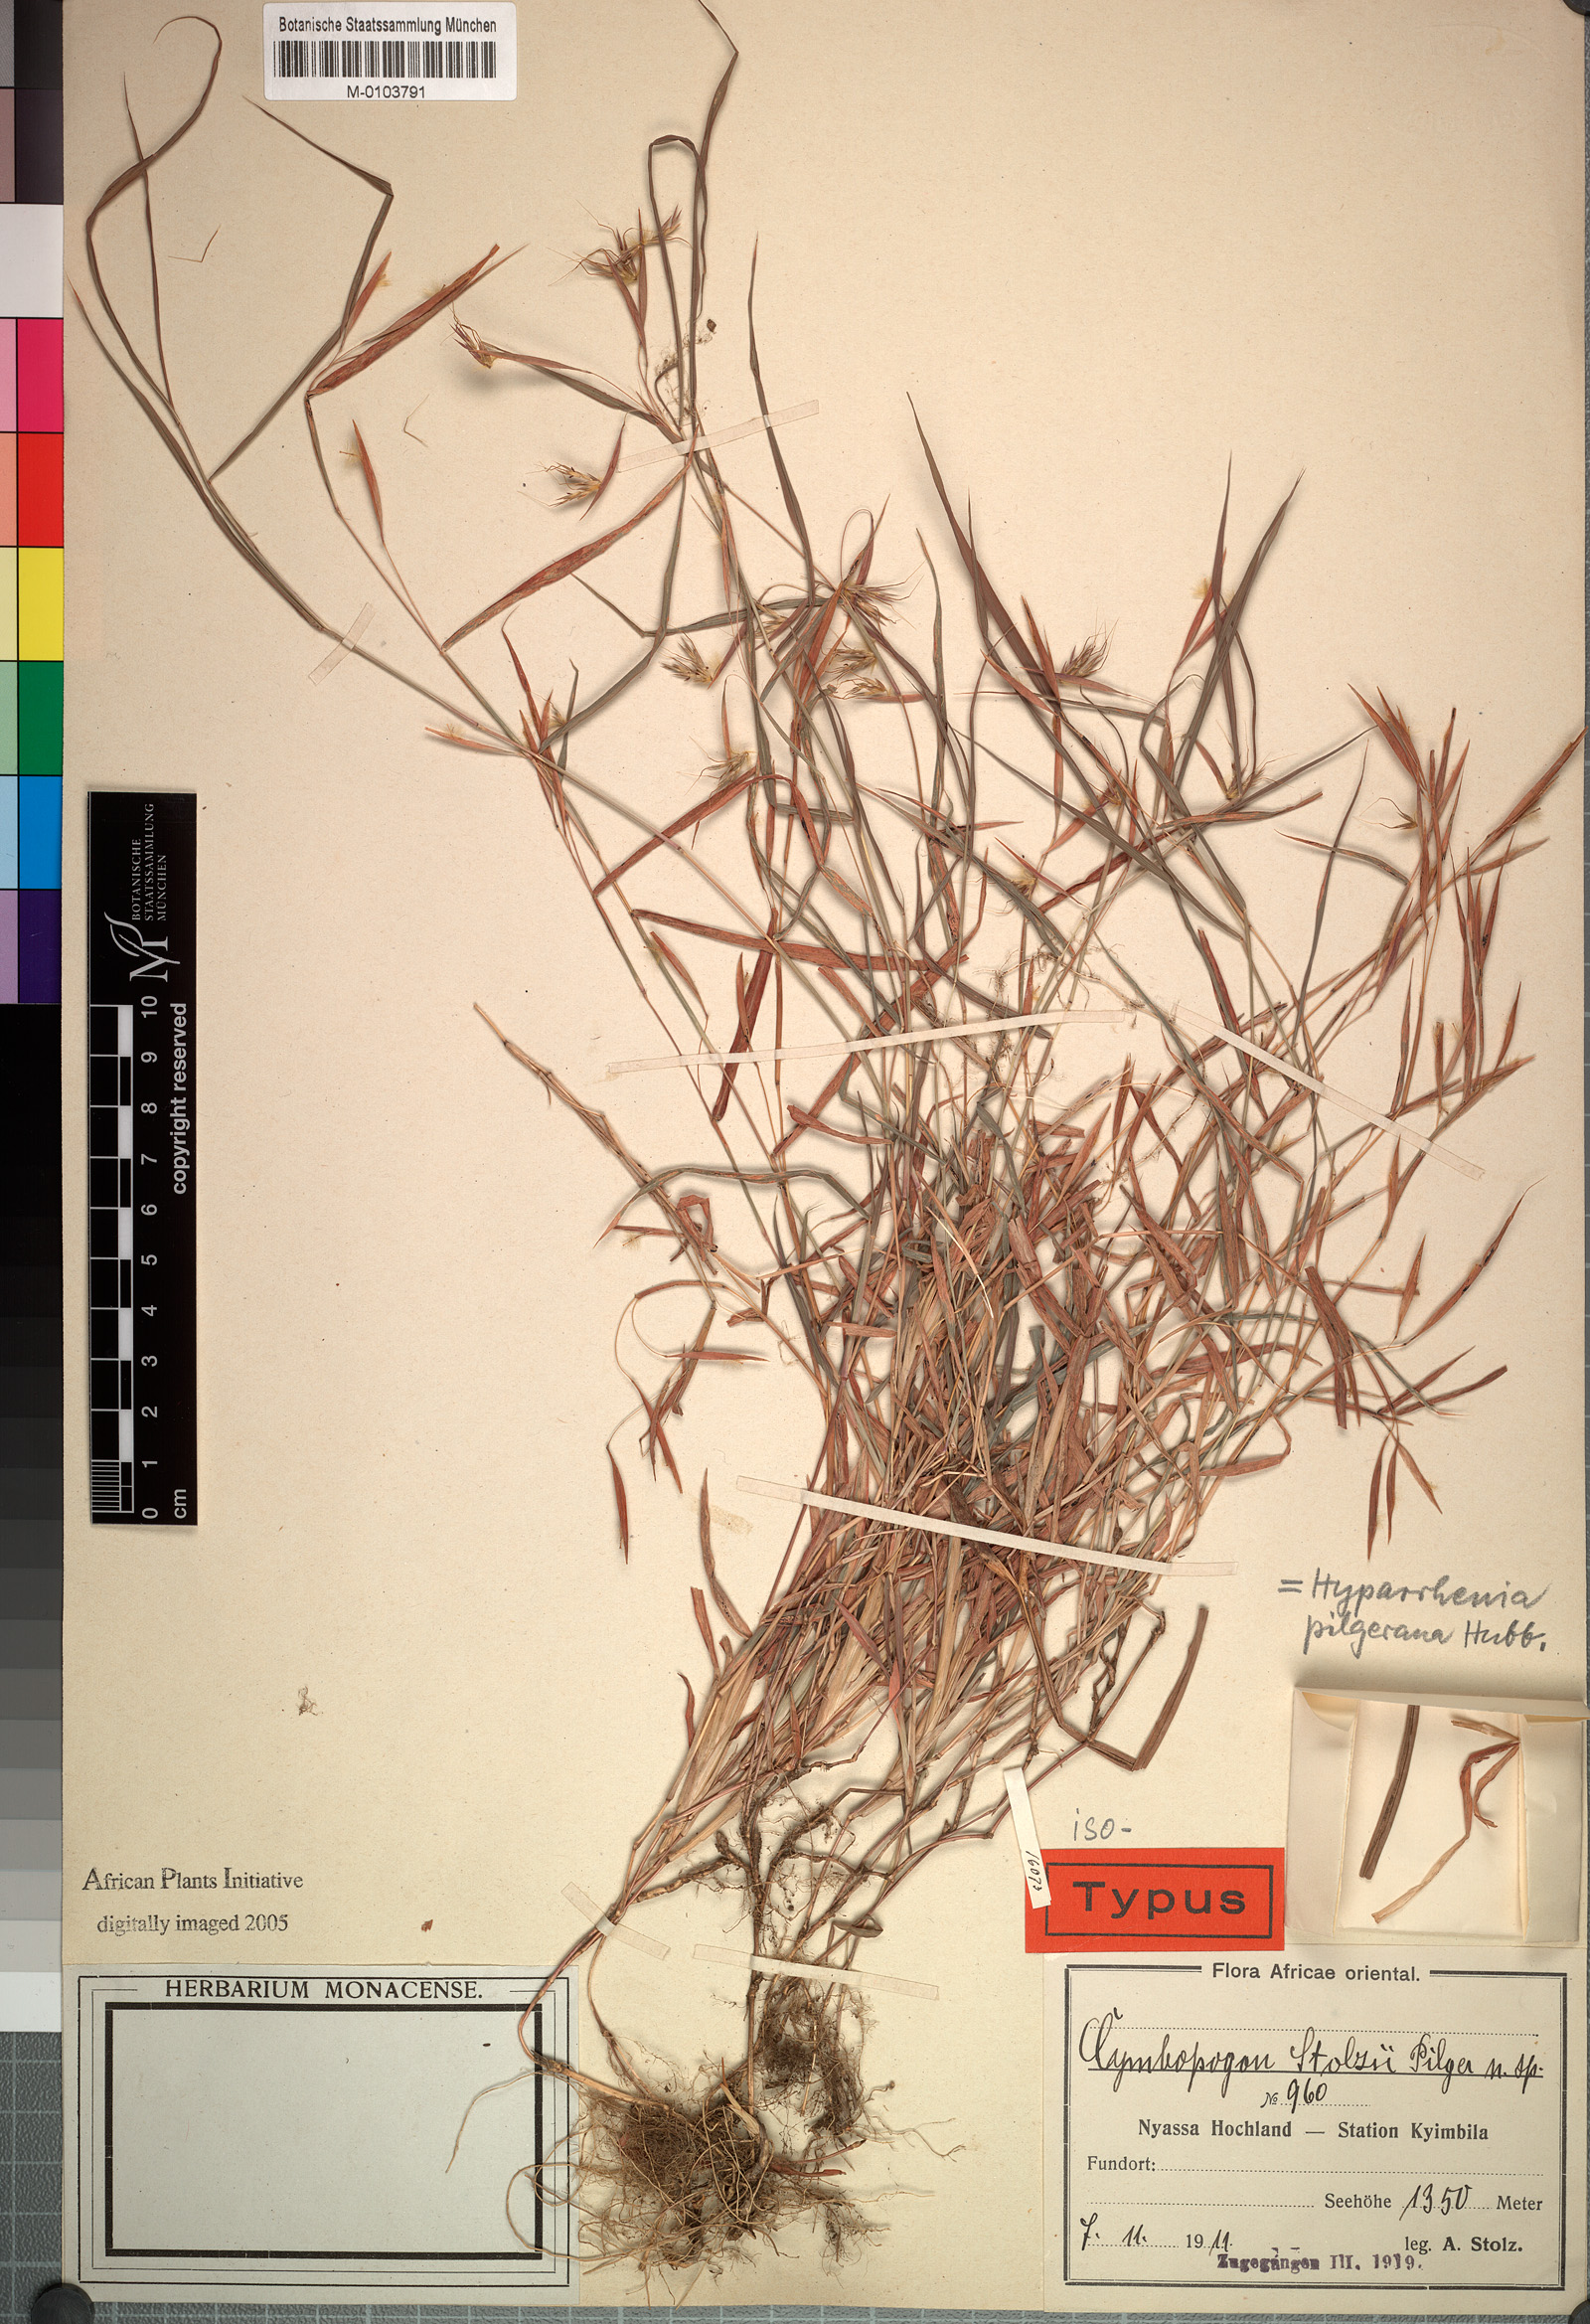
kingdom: Plantae
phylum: Tracheophyta
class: Liliopsida
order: Poales
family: Poaceae
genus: Hyparrhenia
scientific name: Hyparrhenia pilgeriana
